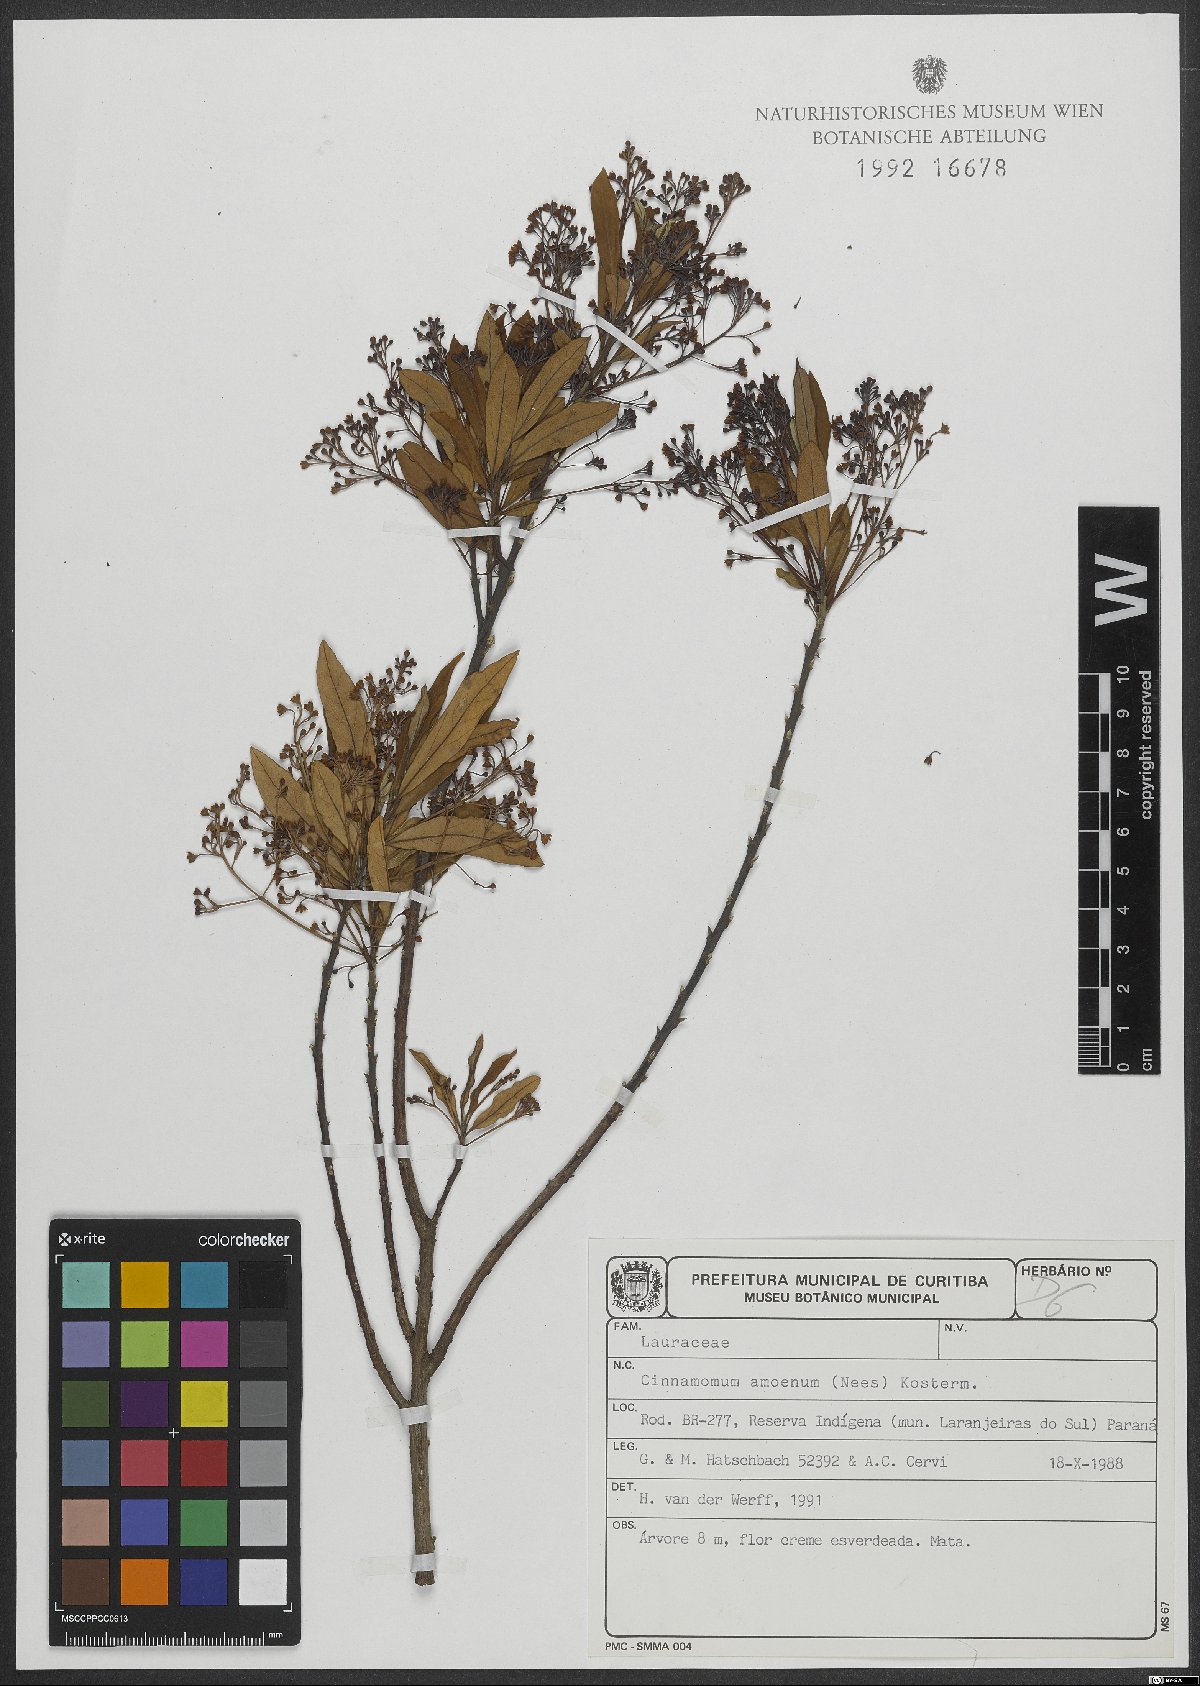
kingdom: Plantae
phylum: Tracheophyta
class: Magnoliopsida
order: Laurales
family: Lauraceae
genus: Aiouea
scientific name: Aiouea amoena
